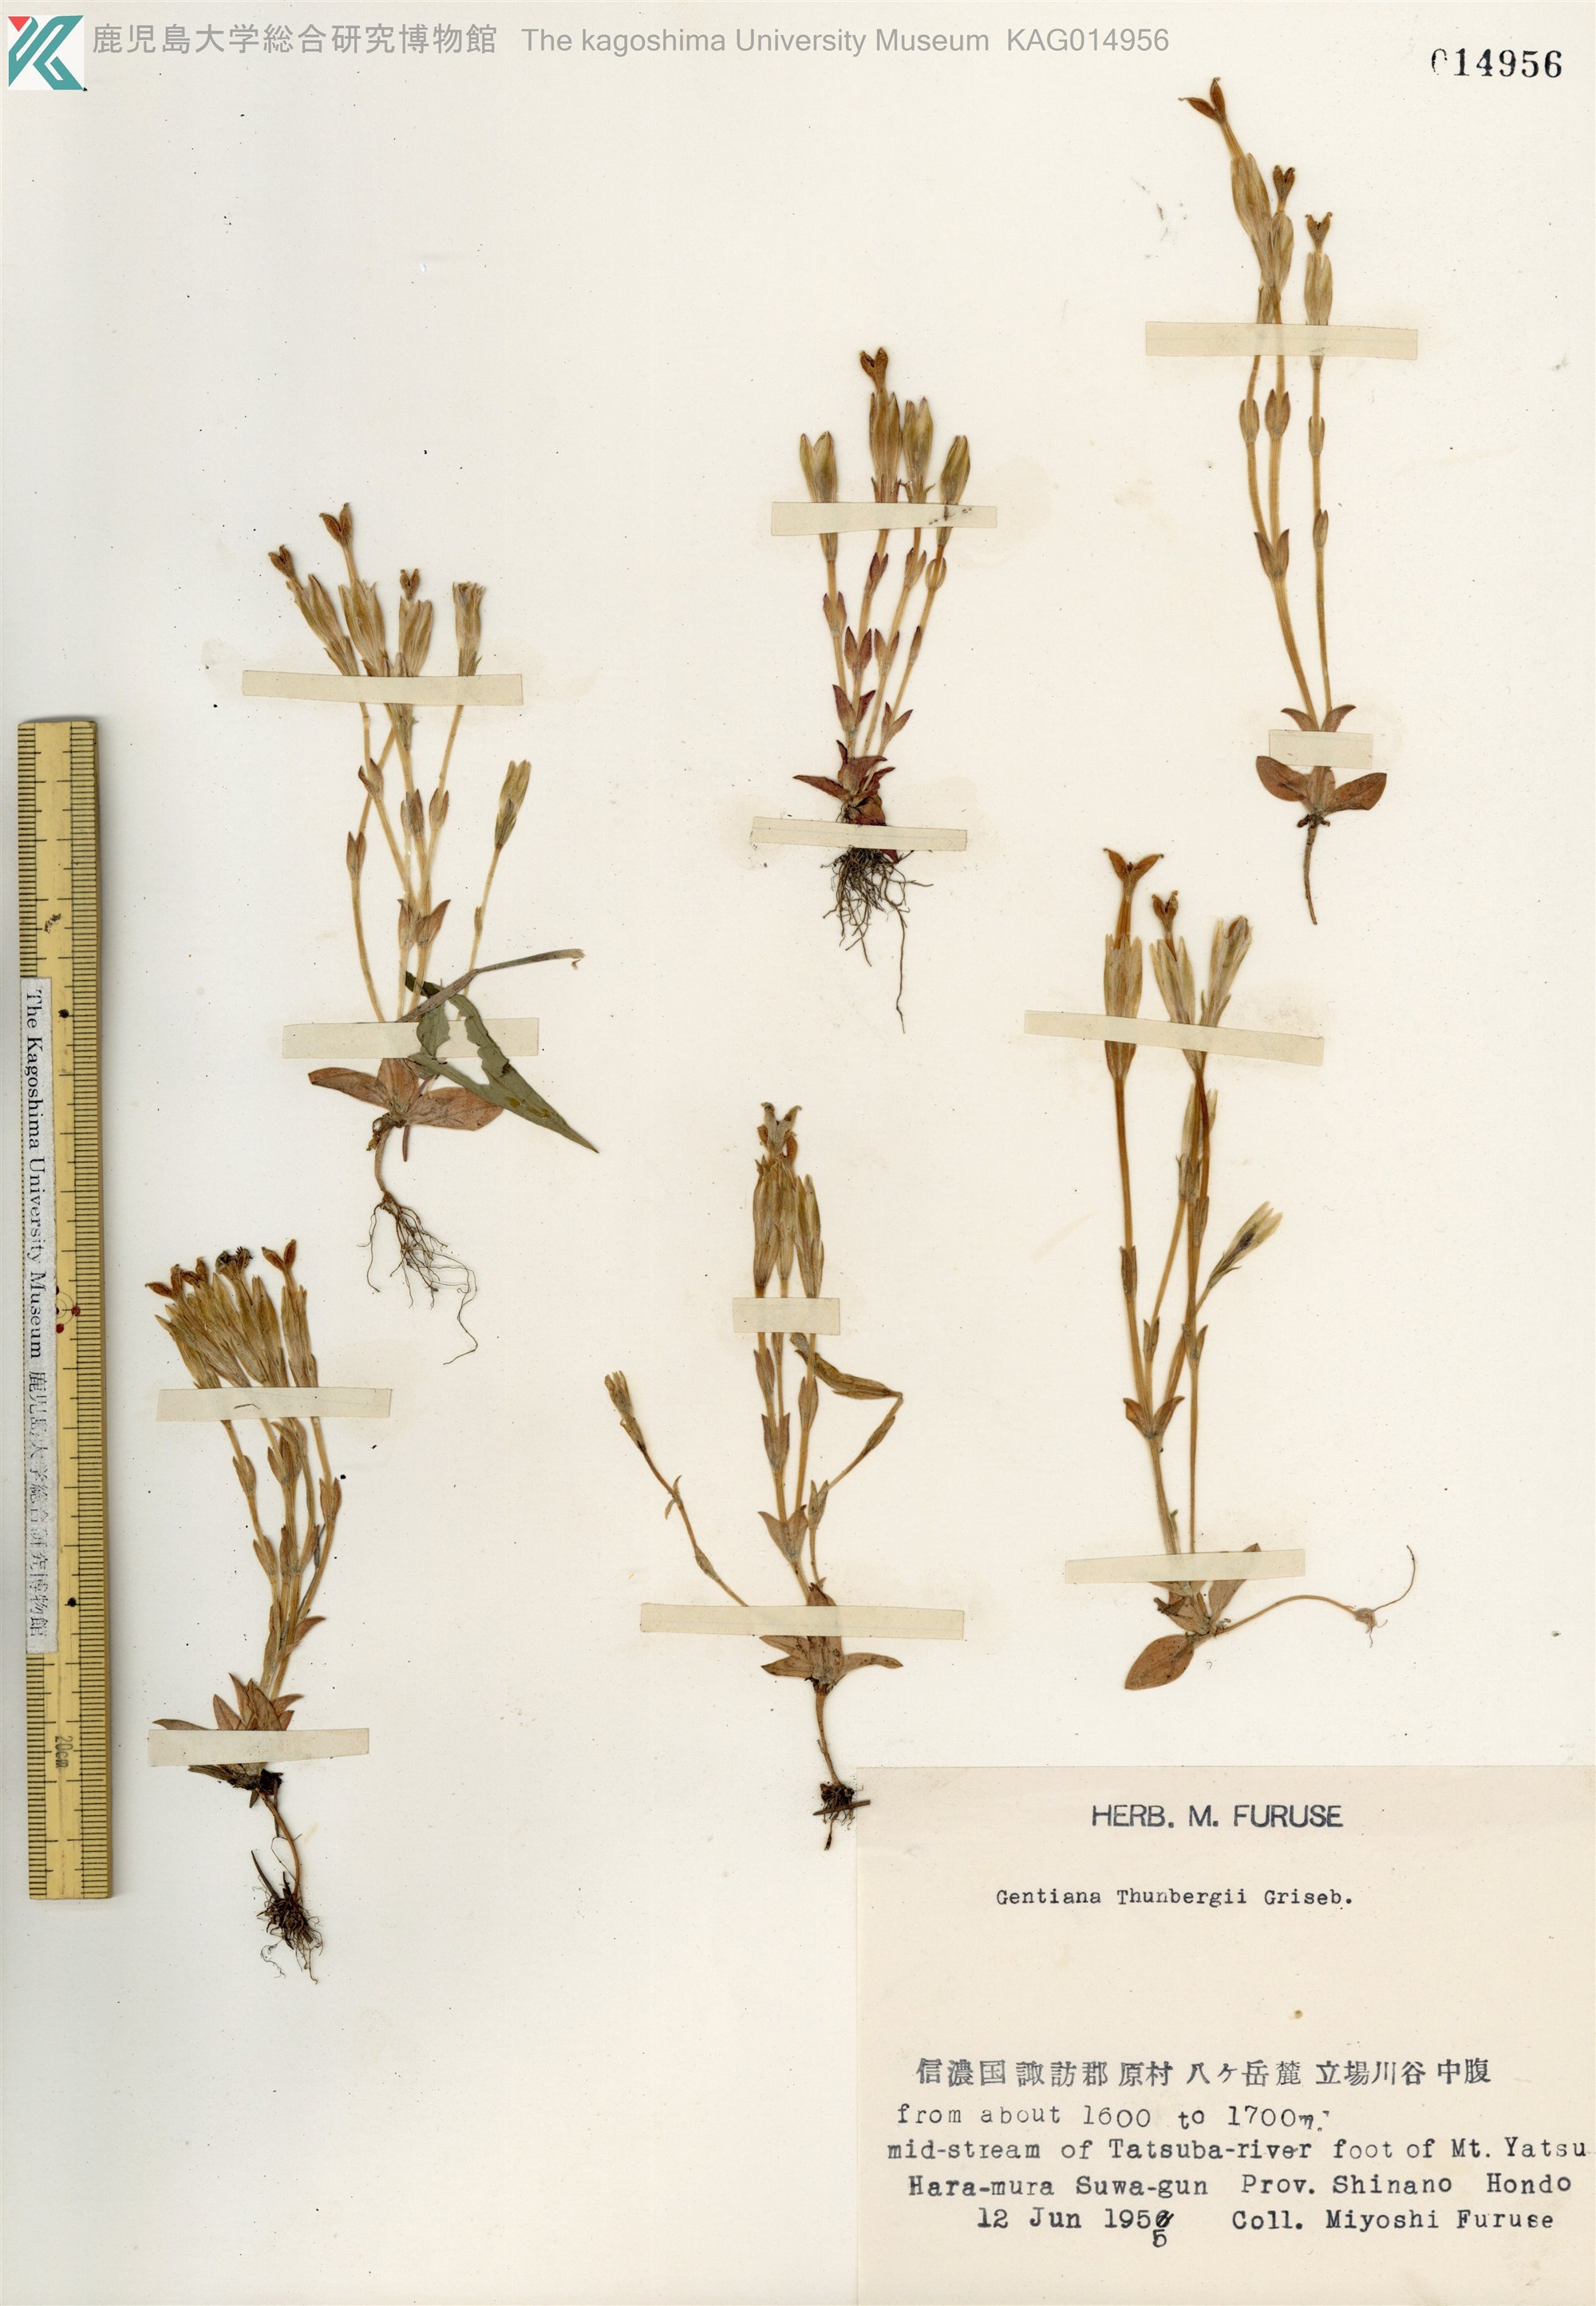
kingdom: Plantae
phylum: Tracheophyta
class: Magnoliopsida
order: Gentianales
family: Gentianaceae
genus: Gentiana
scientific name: Gentiana thunbergii
